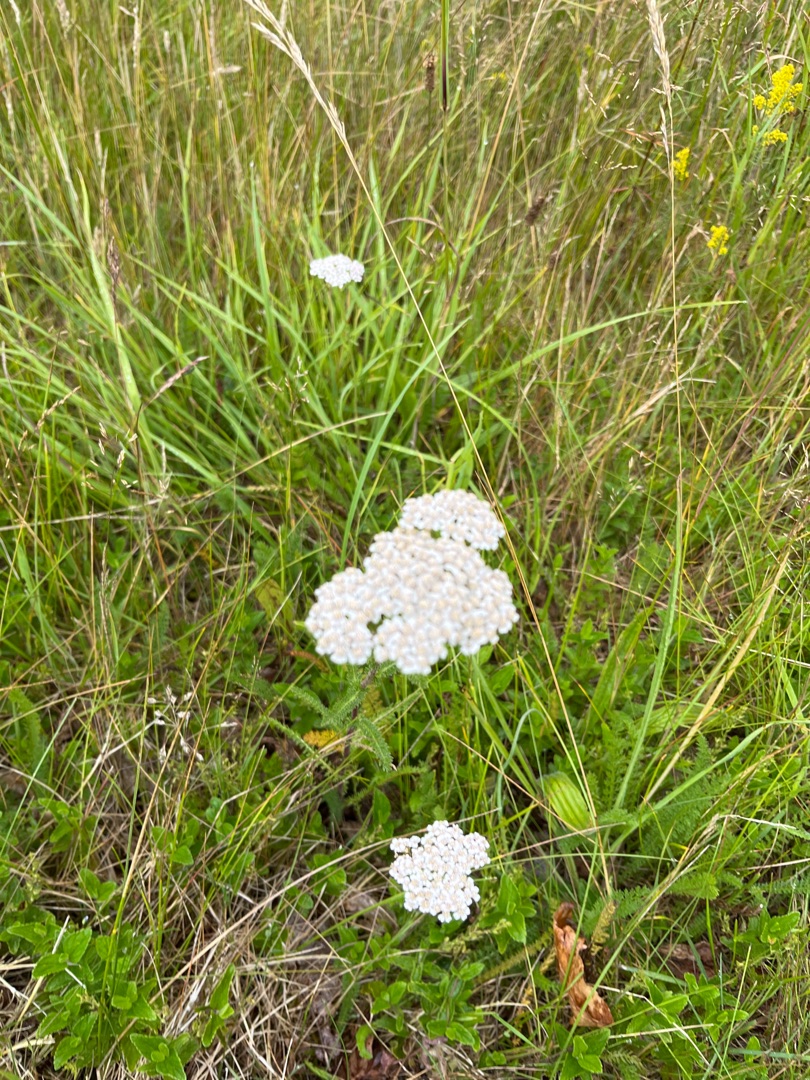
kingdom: Plantae
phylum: Tracheophyta
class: Magnoliopsida
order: Asterales
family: Asteraceae
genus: Achillea
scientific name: Achillea millefolium
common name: Almindelig røllike
